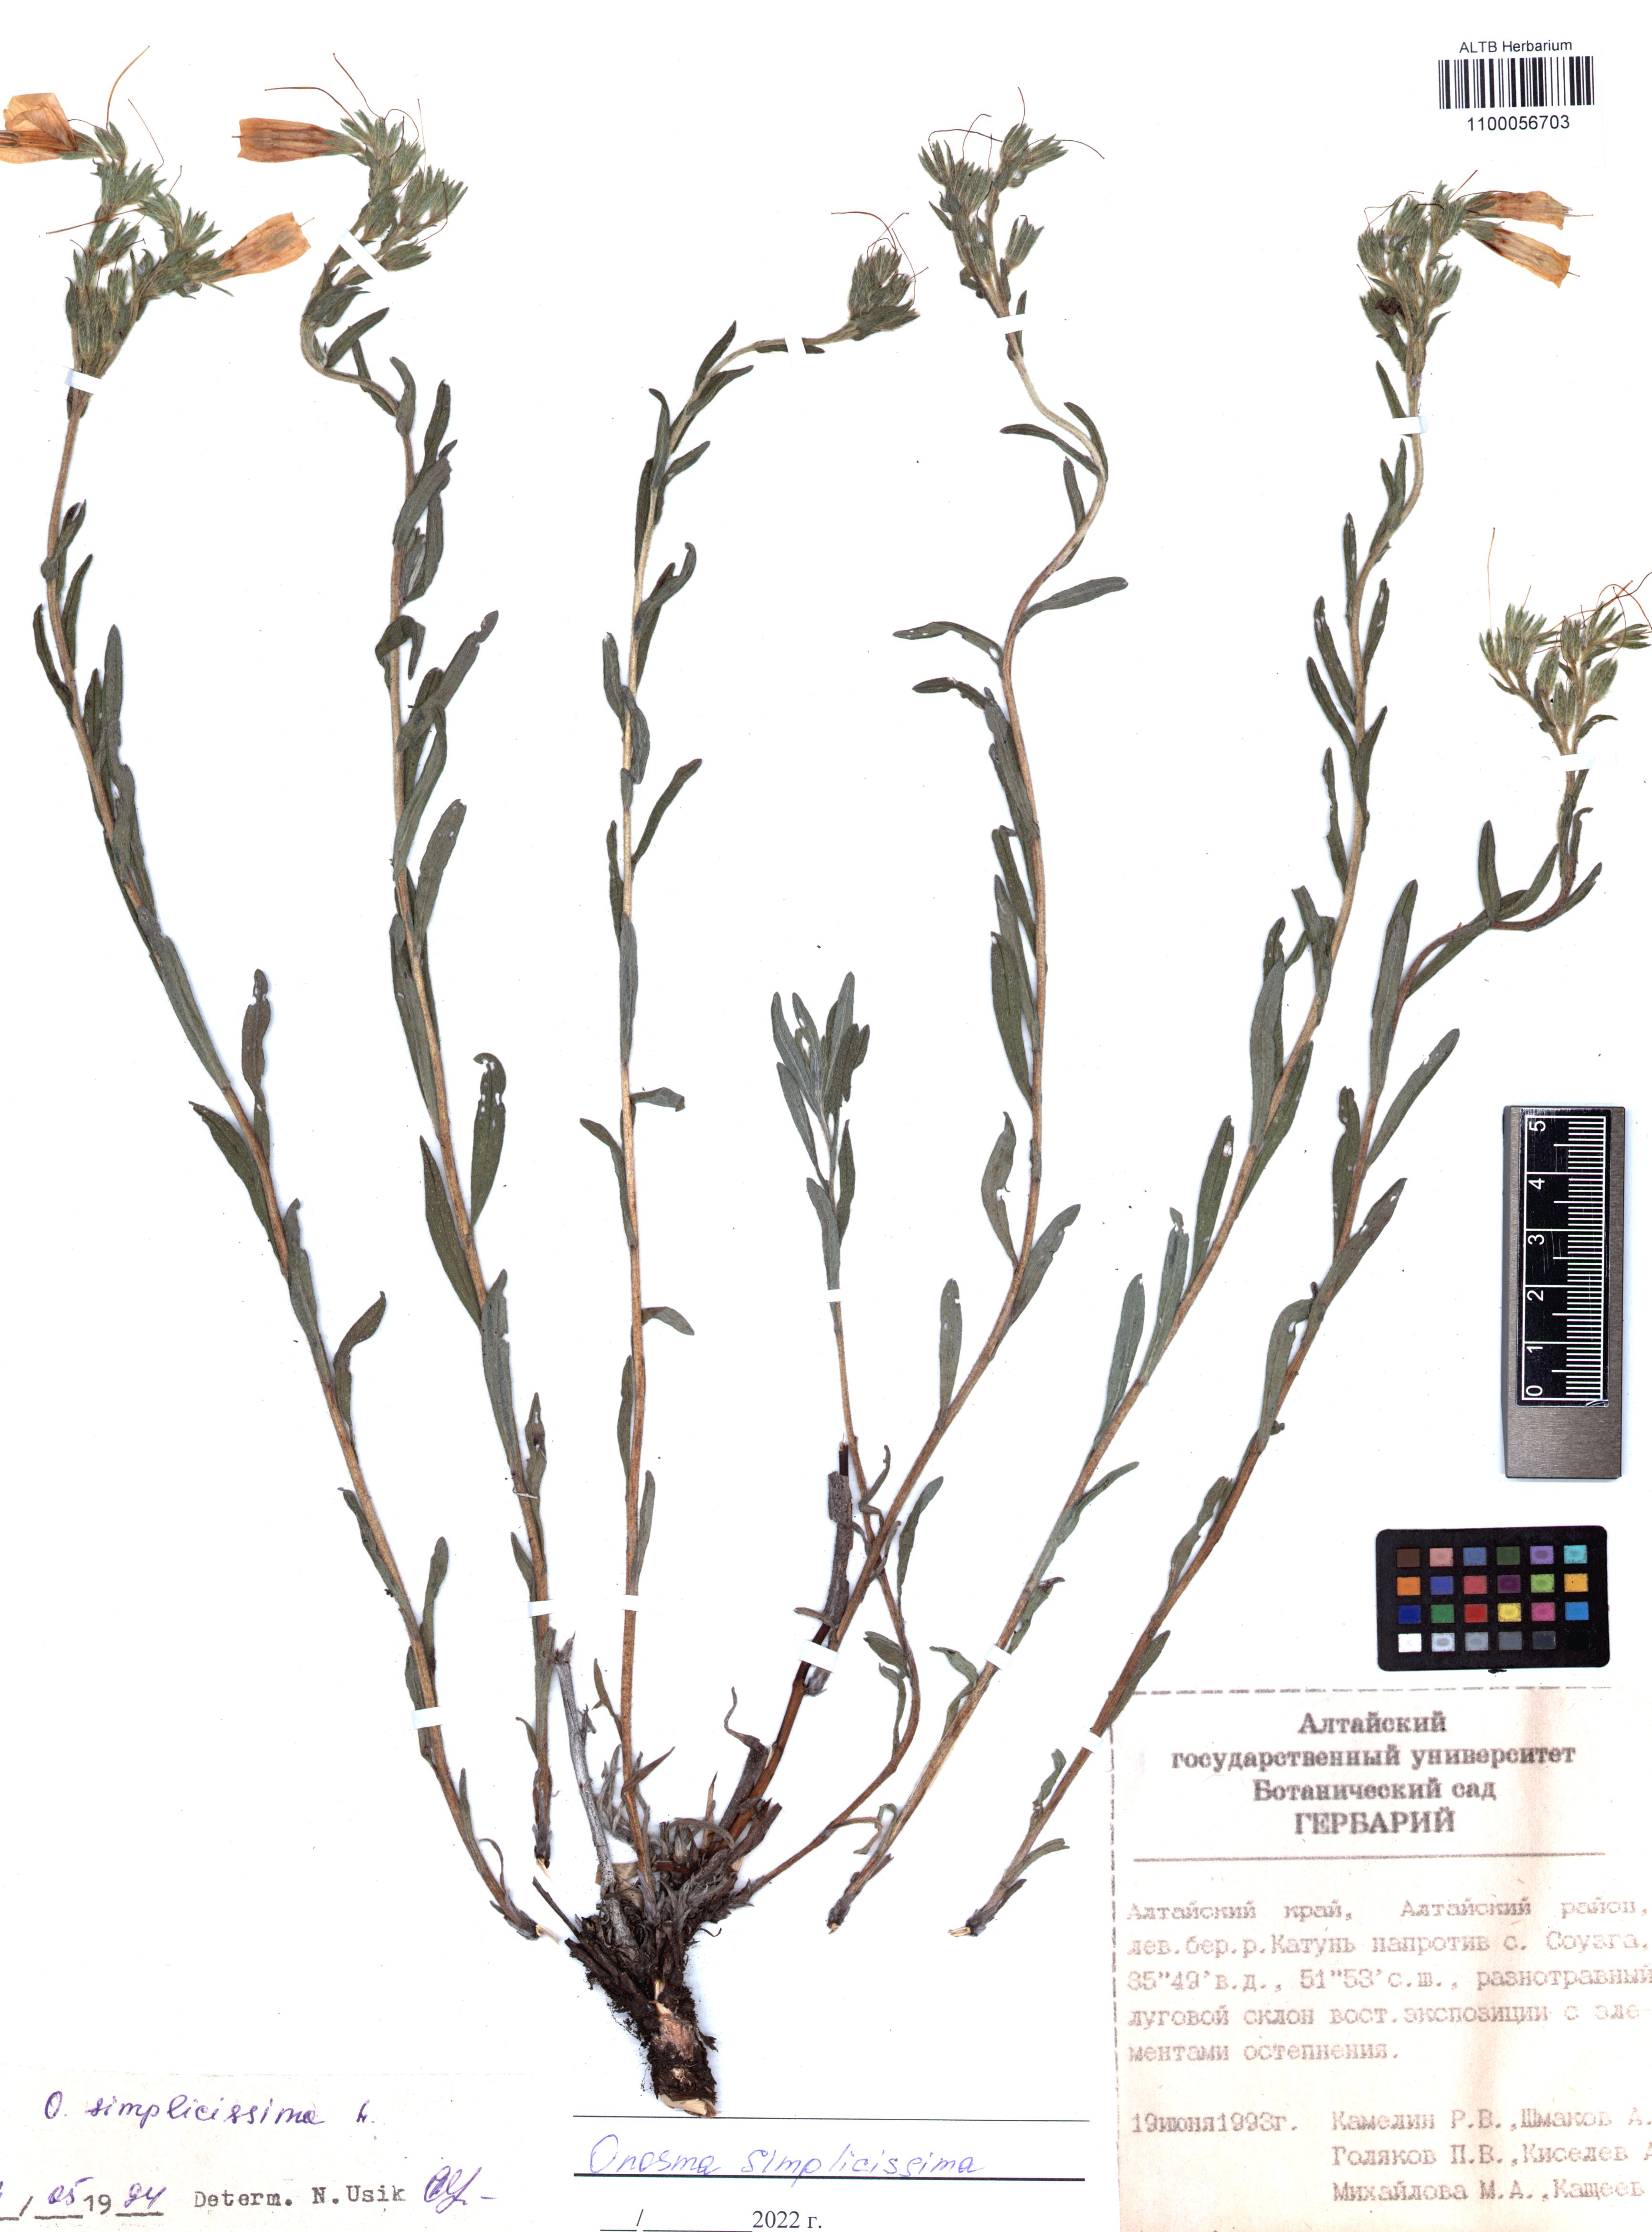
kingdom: Plantae
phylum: Tracheophyta
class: Magnoliopsida
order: Boraginales
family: Boraginaceae
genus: Onosma
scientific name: Onosma simplicissima
